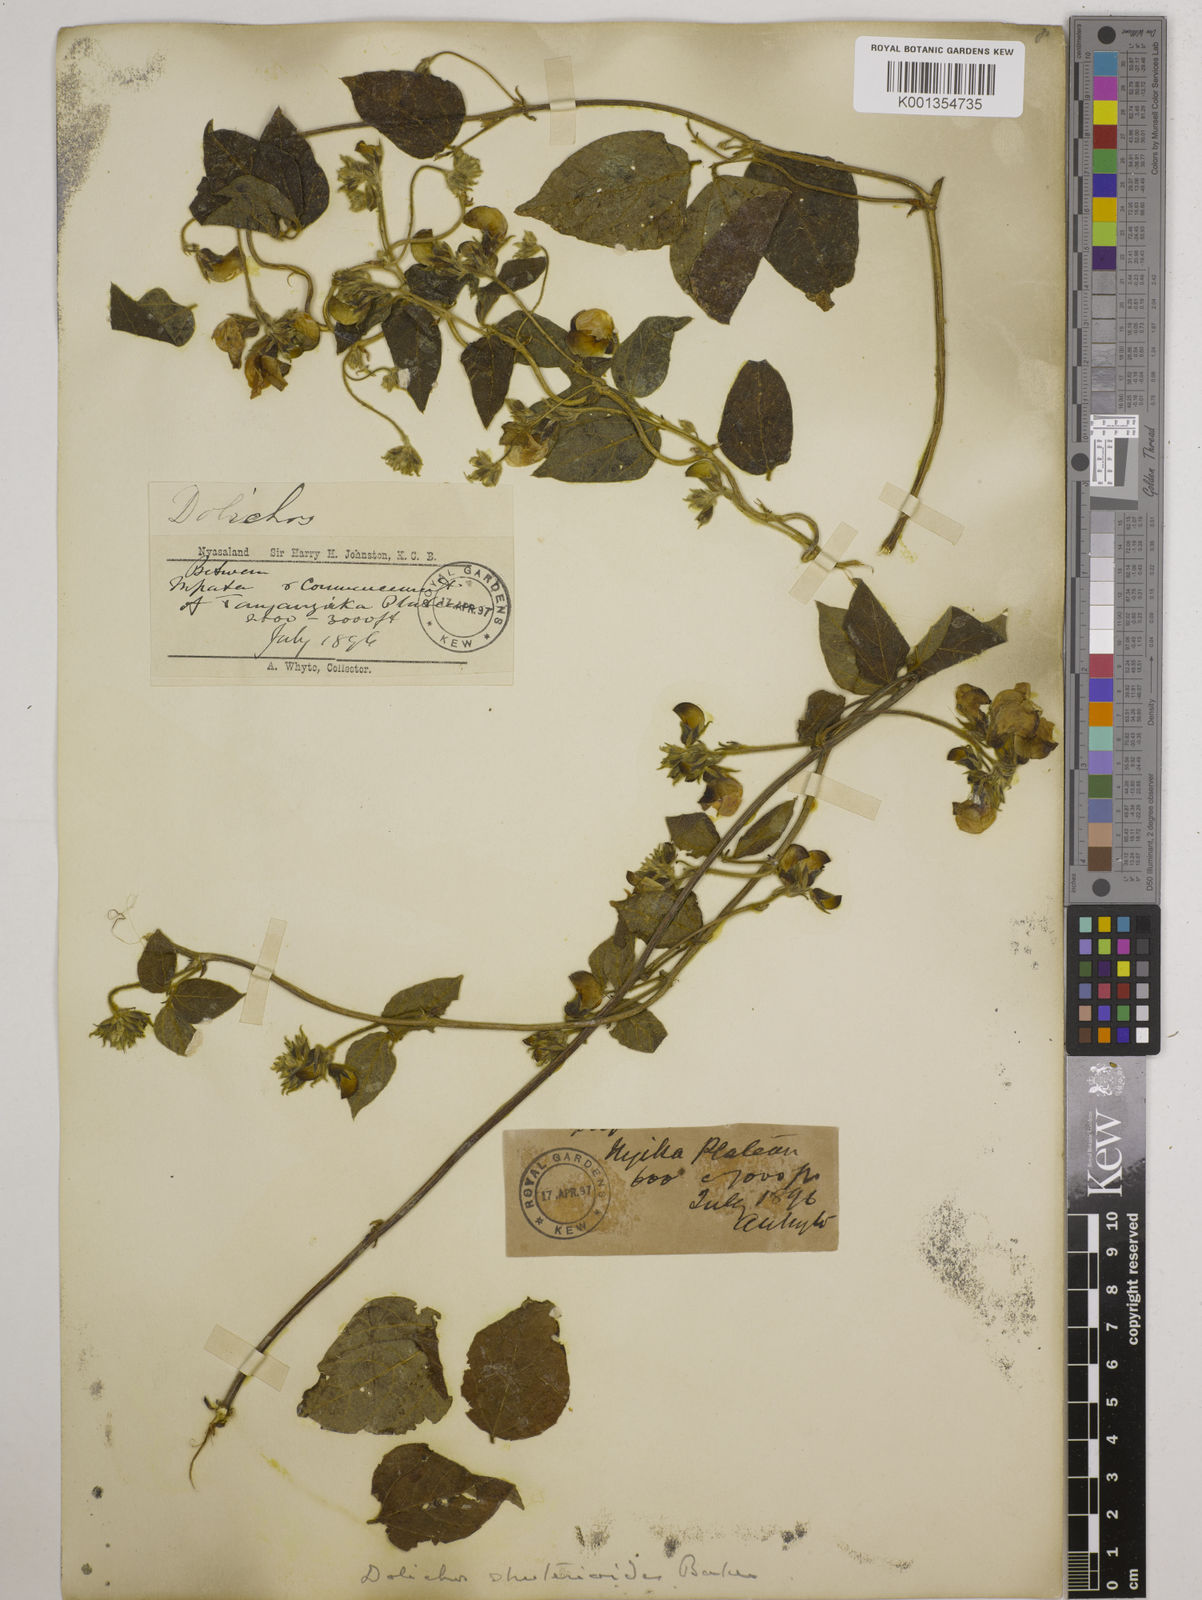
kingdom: Plantae
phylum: Tracheophyta
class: Magnoliopsida
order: Fabales
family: Fabaceae
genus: Dolichos
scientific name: Dolichos
